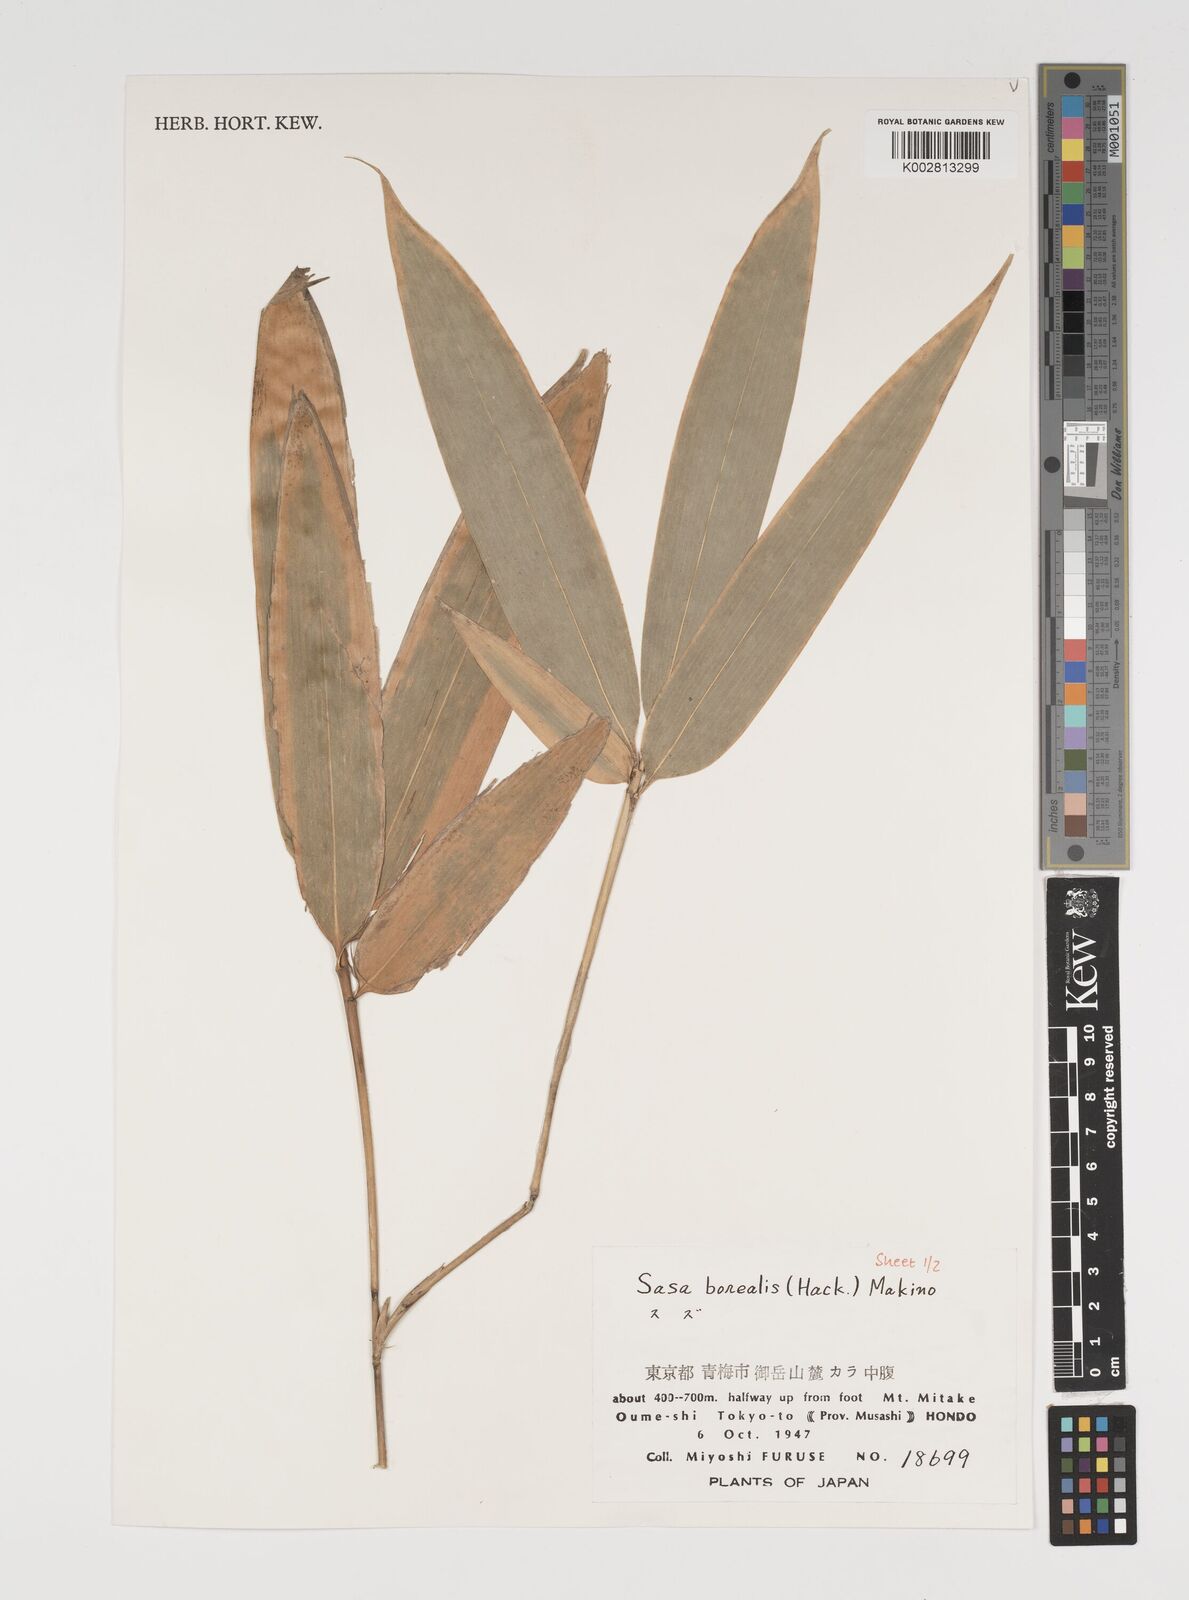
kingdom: Plantae
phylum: Tracheophyta
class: Liliopsida
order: Poales
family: Poaceae
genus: Sasamorpha
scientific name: Sasamorpha borealis
